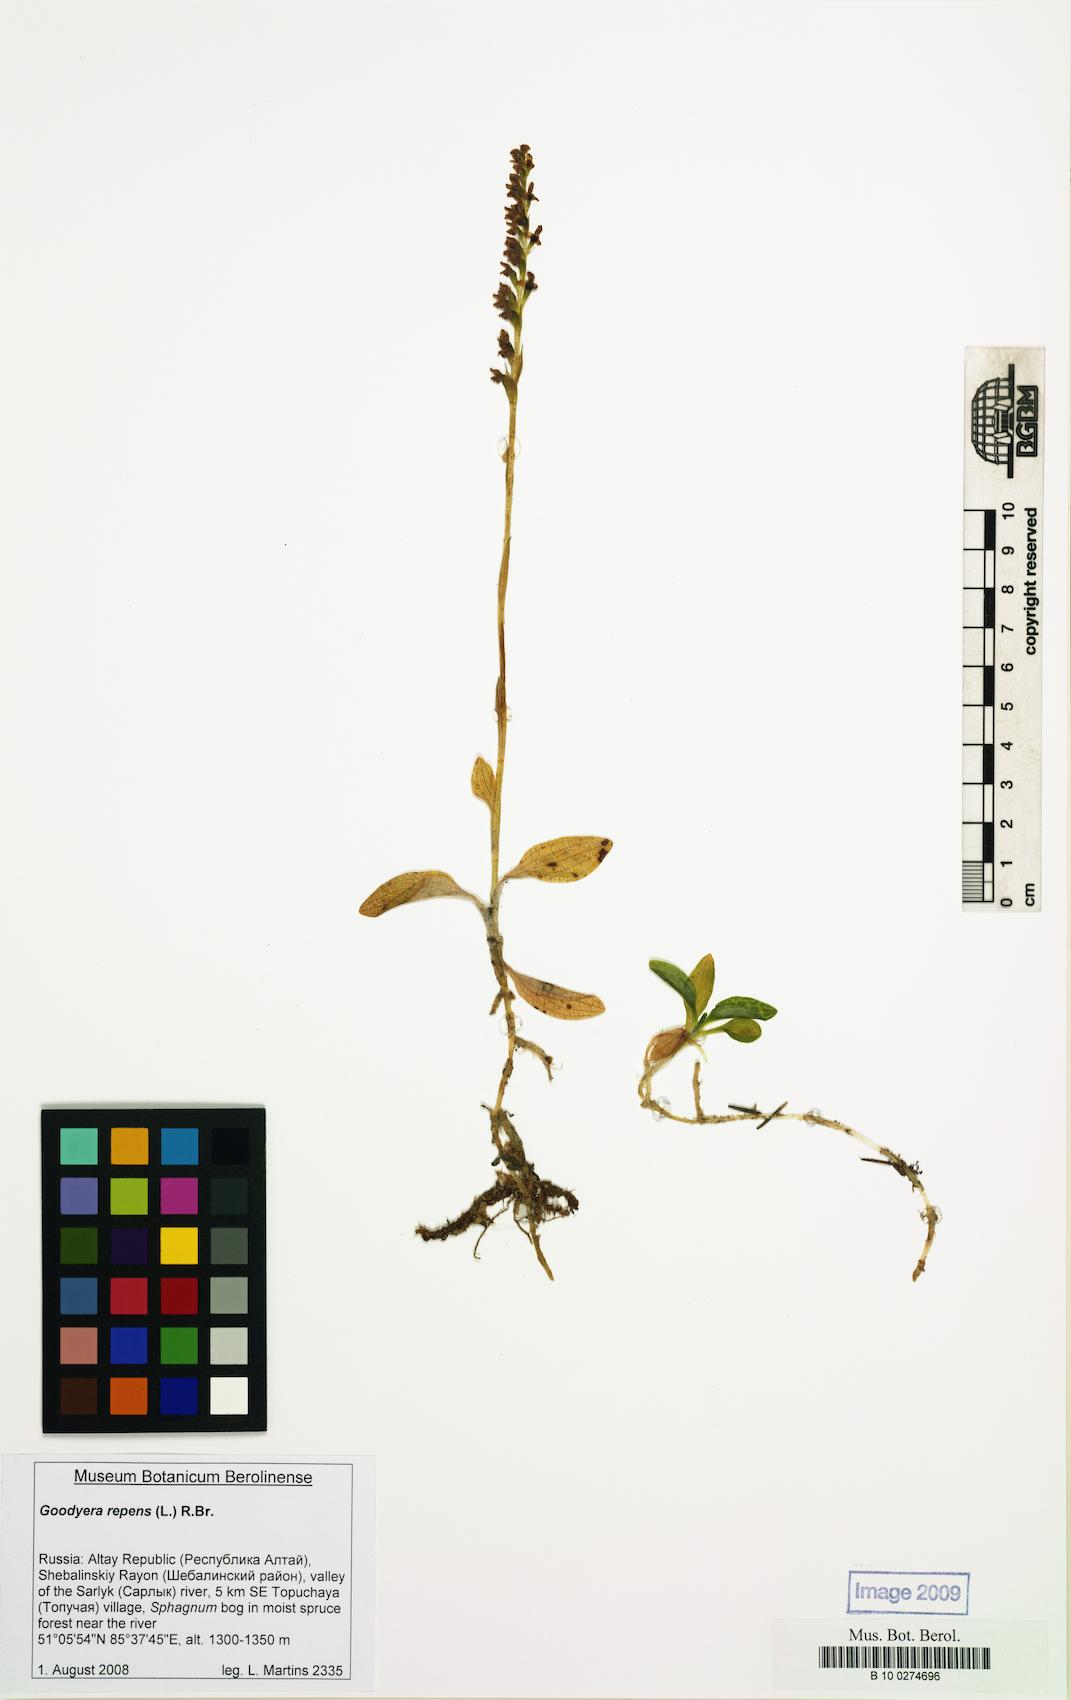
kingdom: Plantae
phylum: Tracheophyta
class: Liliopsida
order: Asparagales
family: Orchidaceae
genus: Goodyera
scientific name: Goodyera repens
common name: Creeping lady's-tresses
